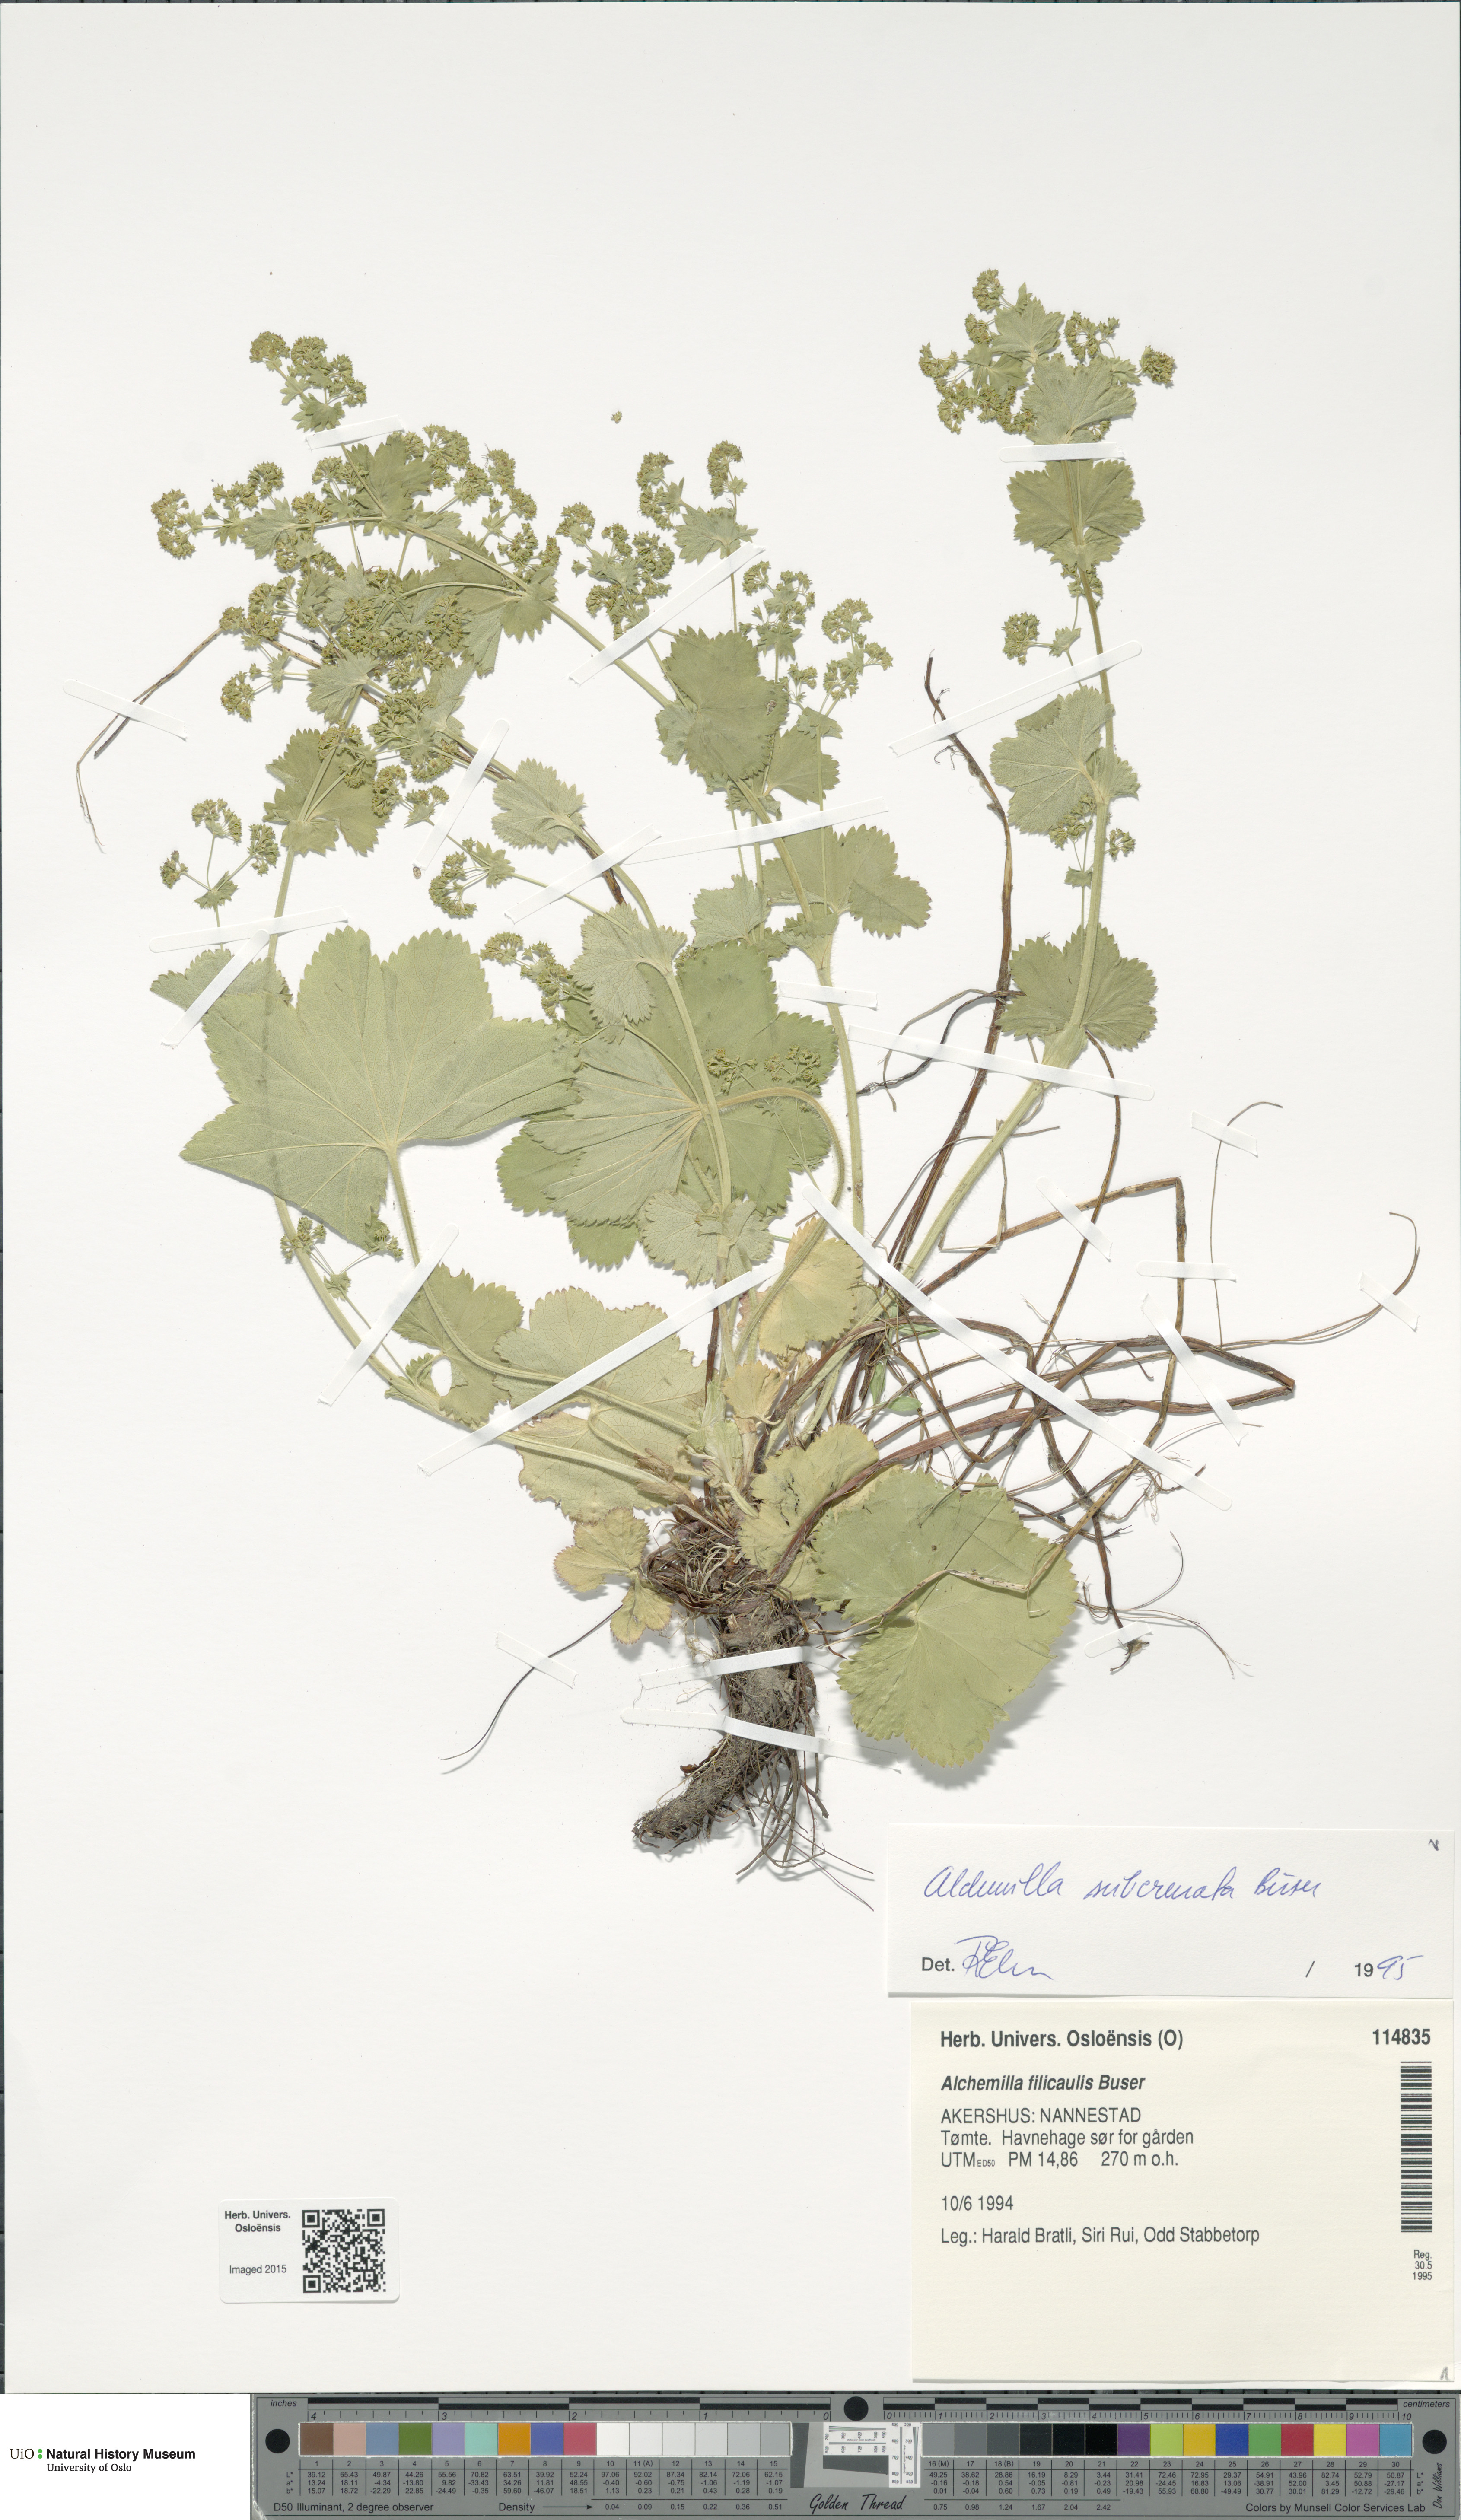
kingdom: Plantae
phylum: Tracheophyta
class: Magnoliopsida
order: Rosales
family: Rosaceae
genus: Alchemilla
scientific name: Alchemilla subcrenata
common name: Broadtooth lady's mantle
